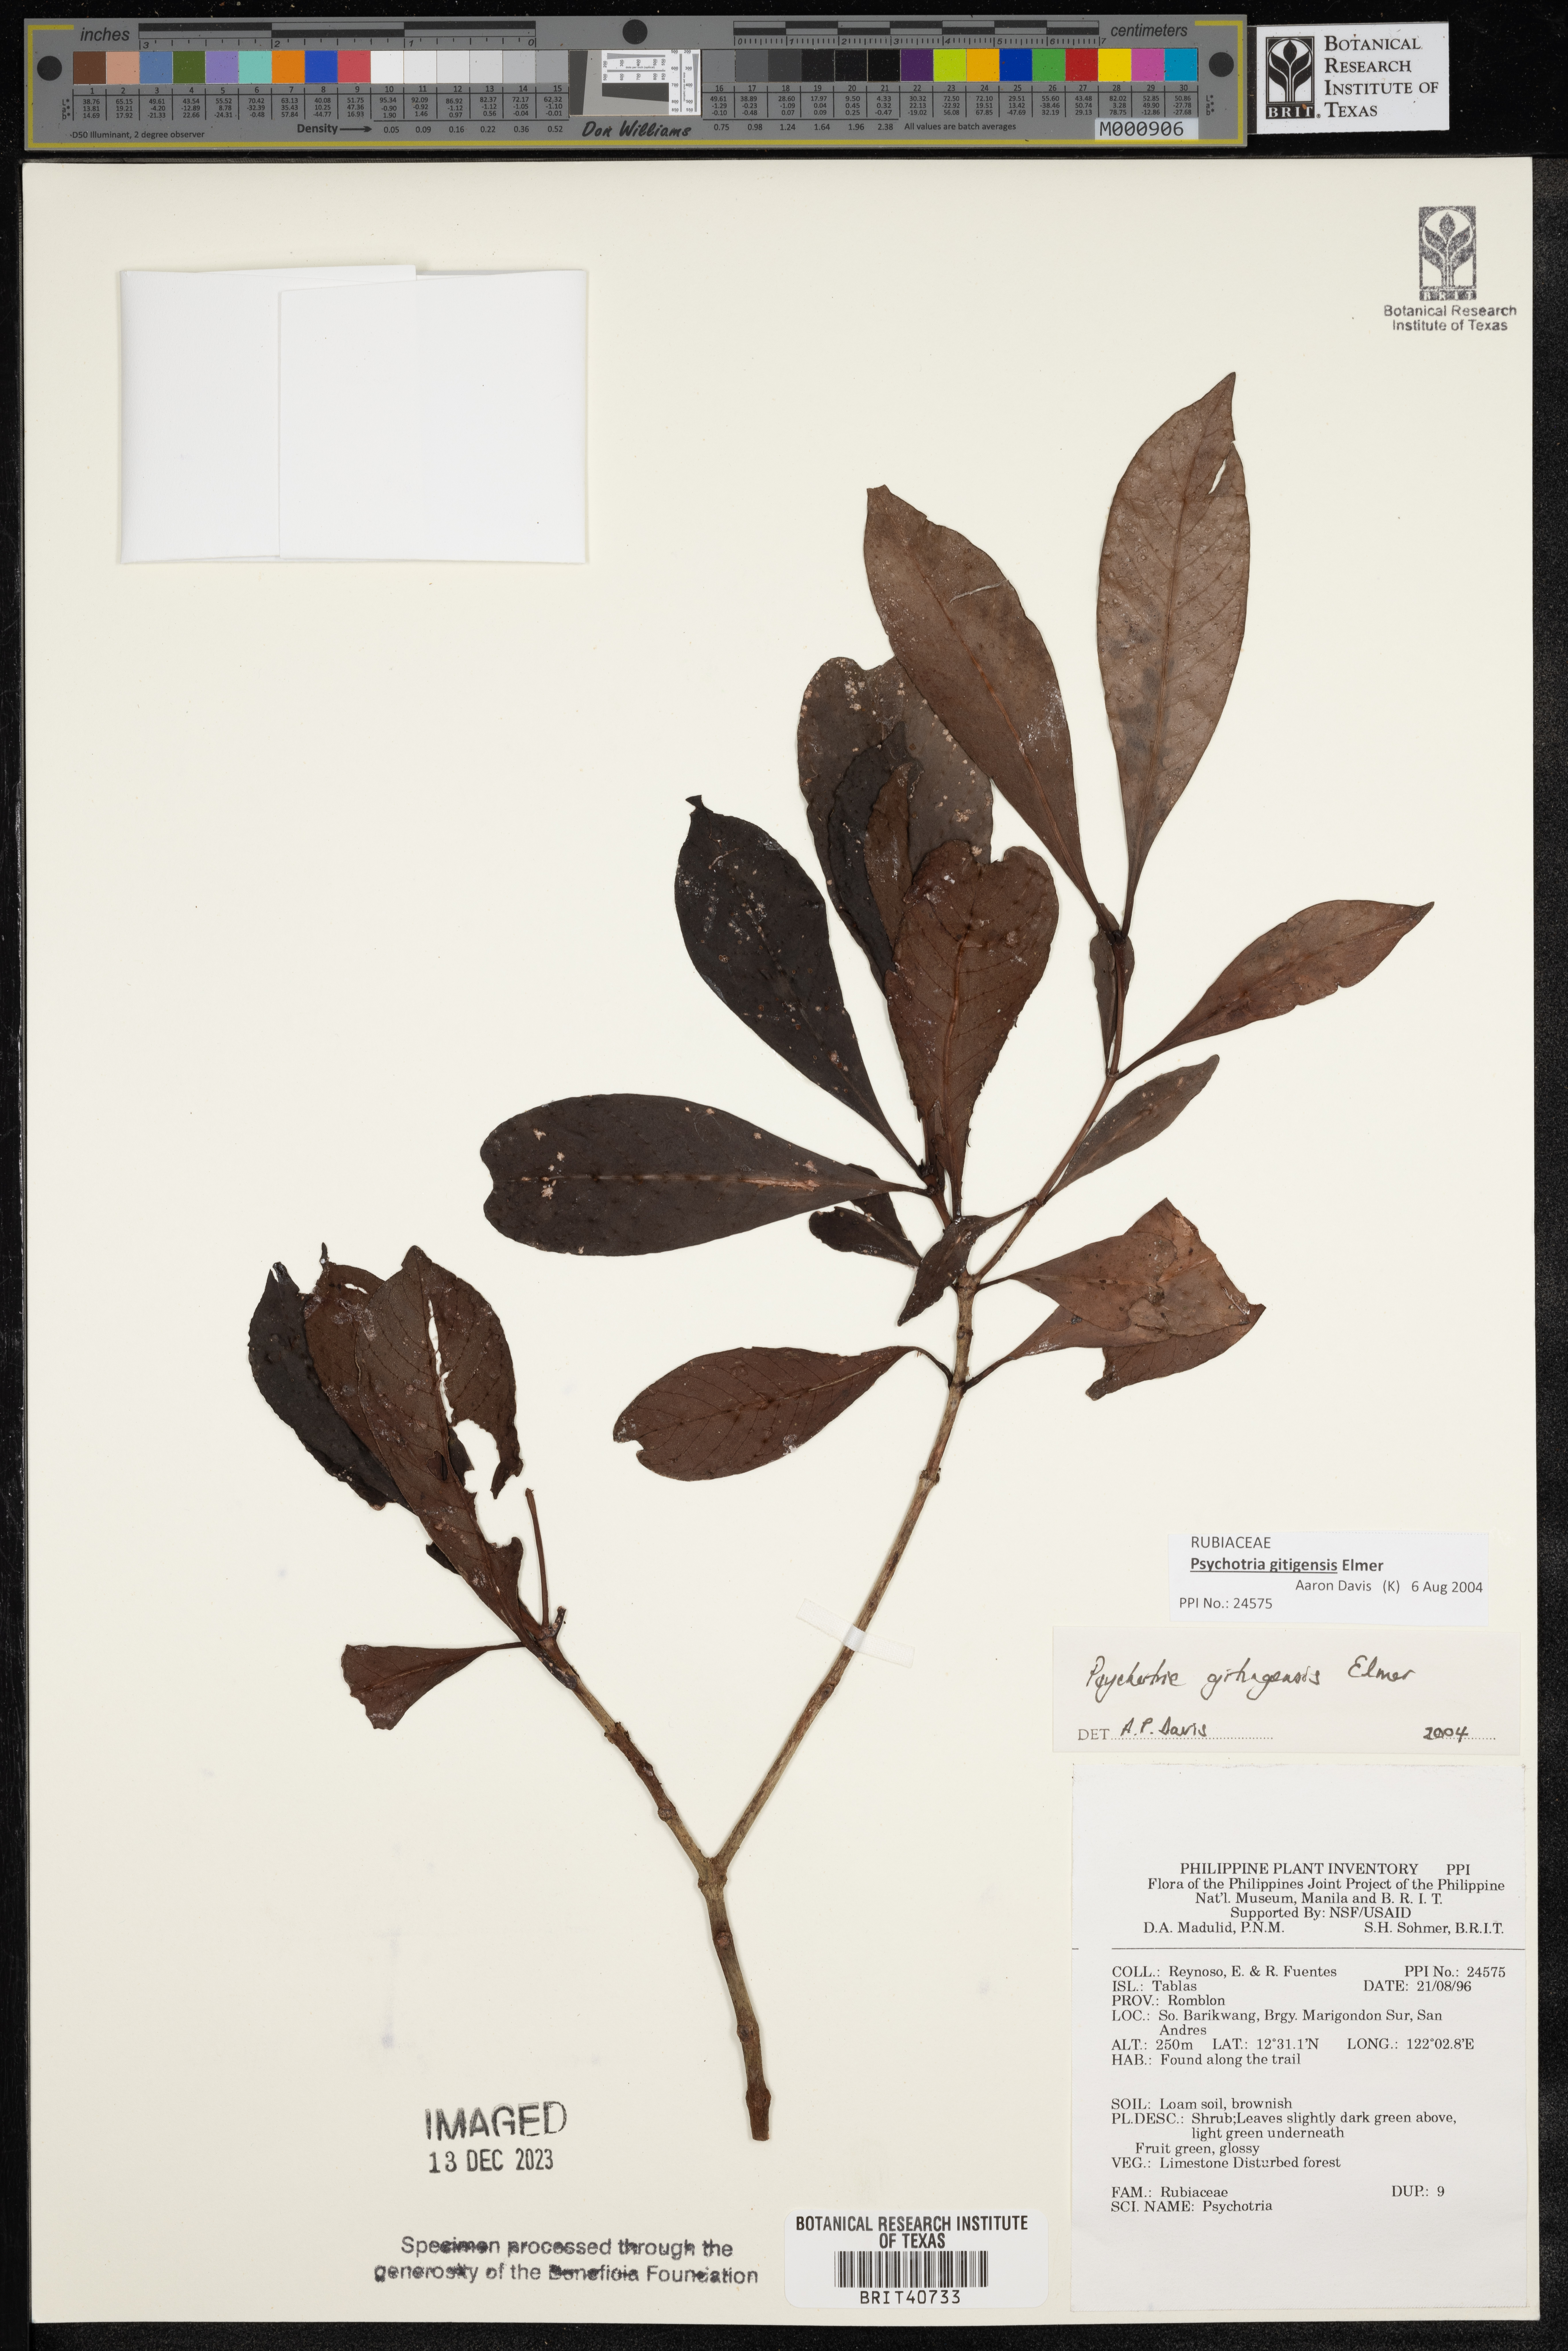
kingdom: Plantae
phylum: Tracheophyta
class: Magnoliopsida
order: Gentianales
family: Rubiaceae
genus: Psychotria
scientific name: Psychotria gitingensis
